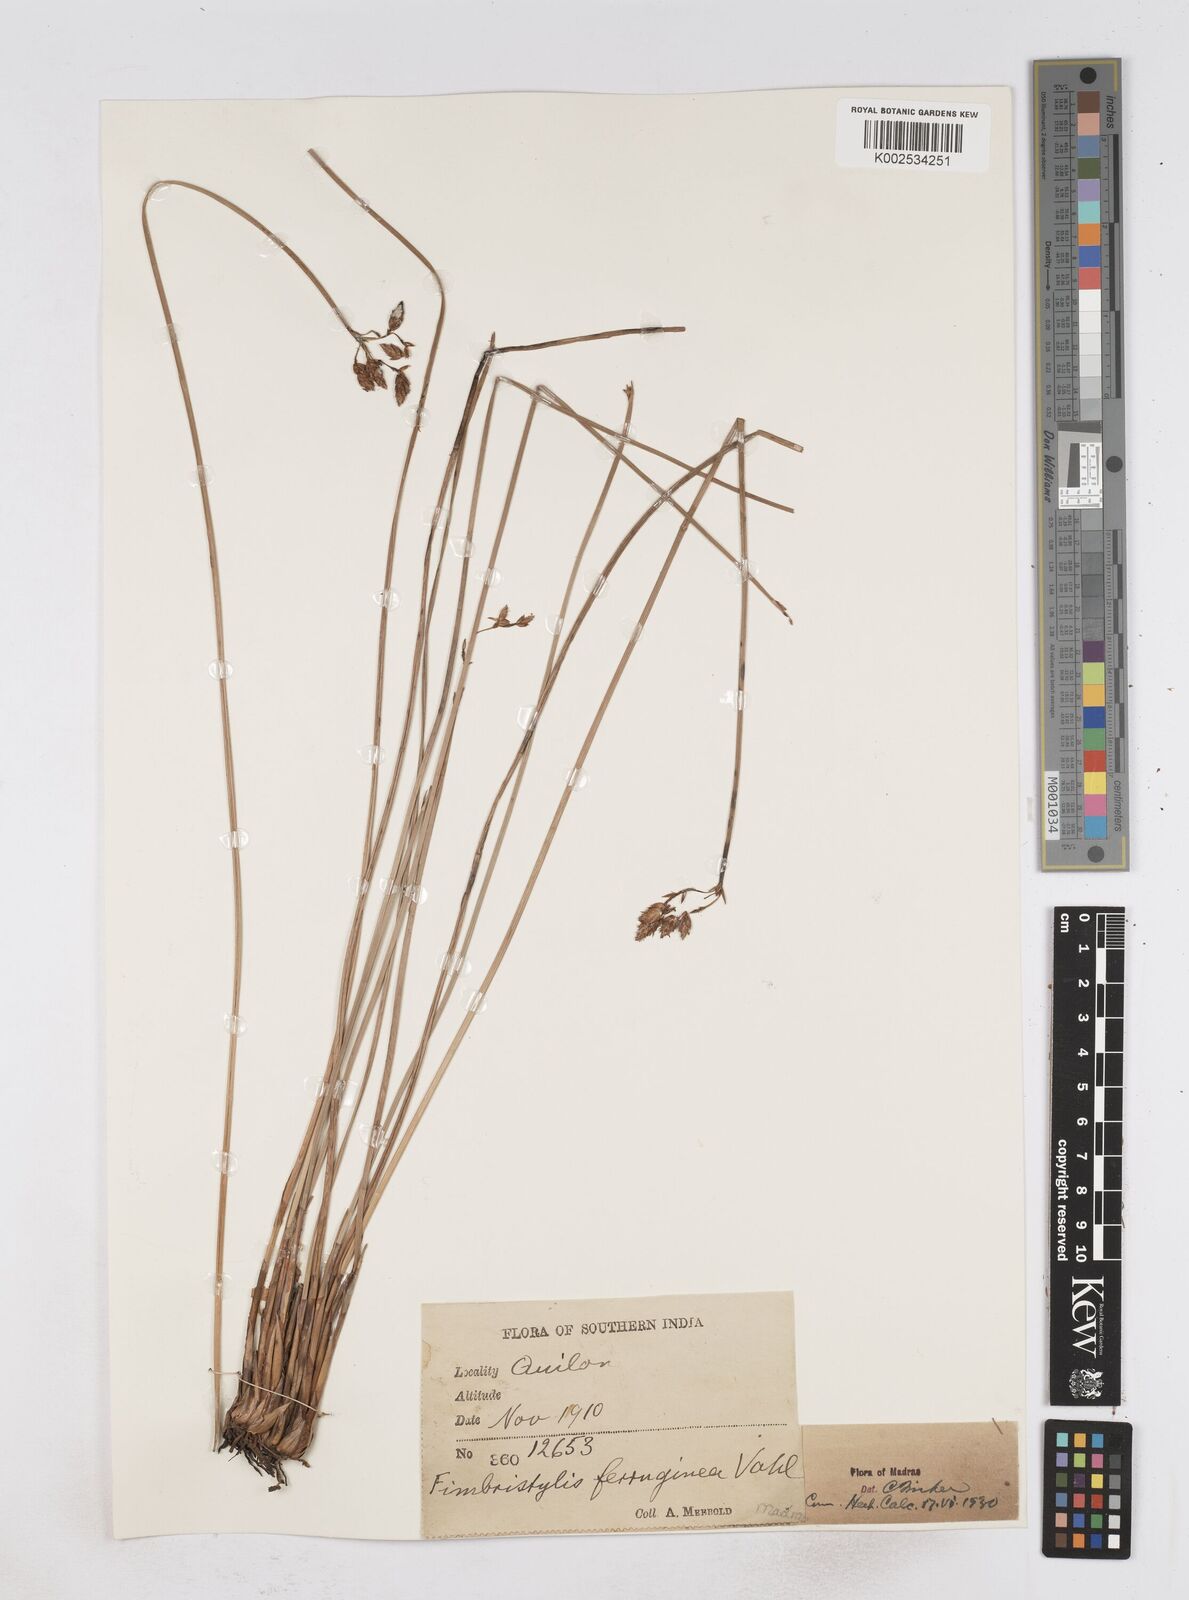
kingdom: Plantae
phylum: Tracheophyta
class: Liliopsida
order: Poales
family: Cyperaceae
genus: Fimbristylis
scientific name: Fimbristylis ferruginea
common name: West indian fimbry
